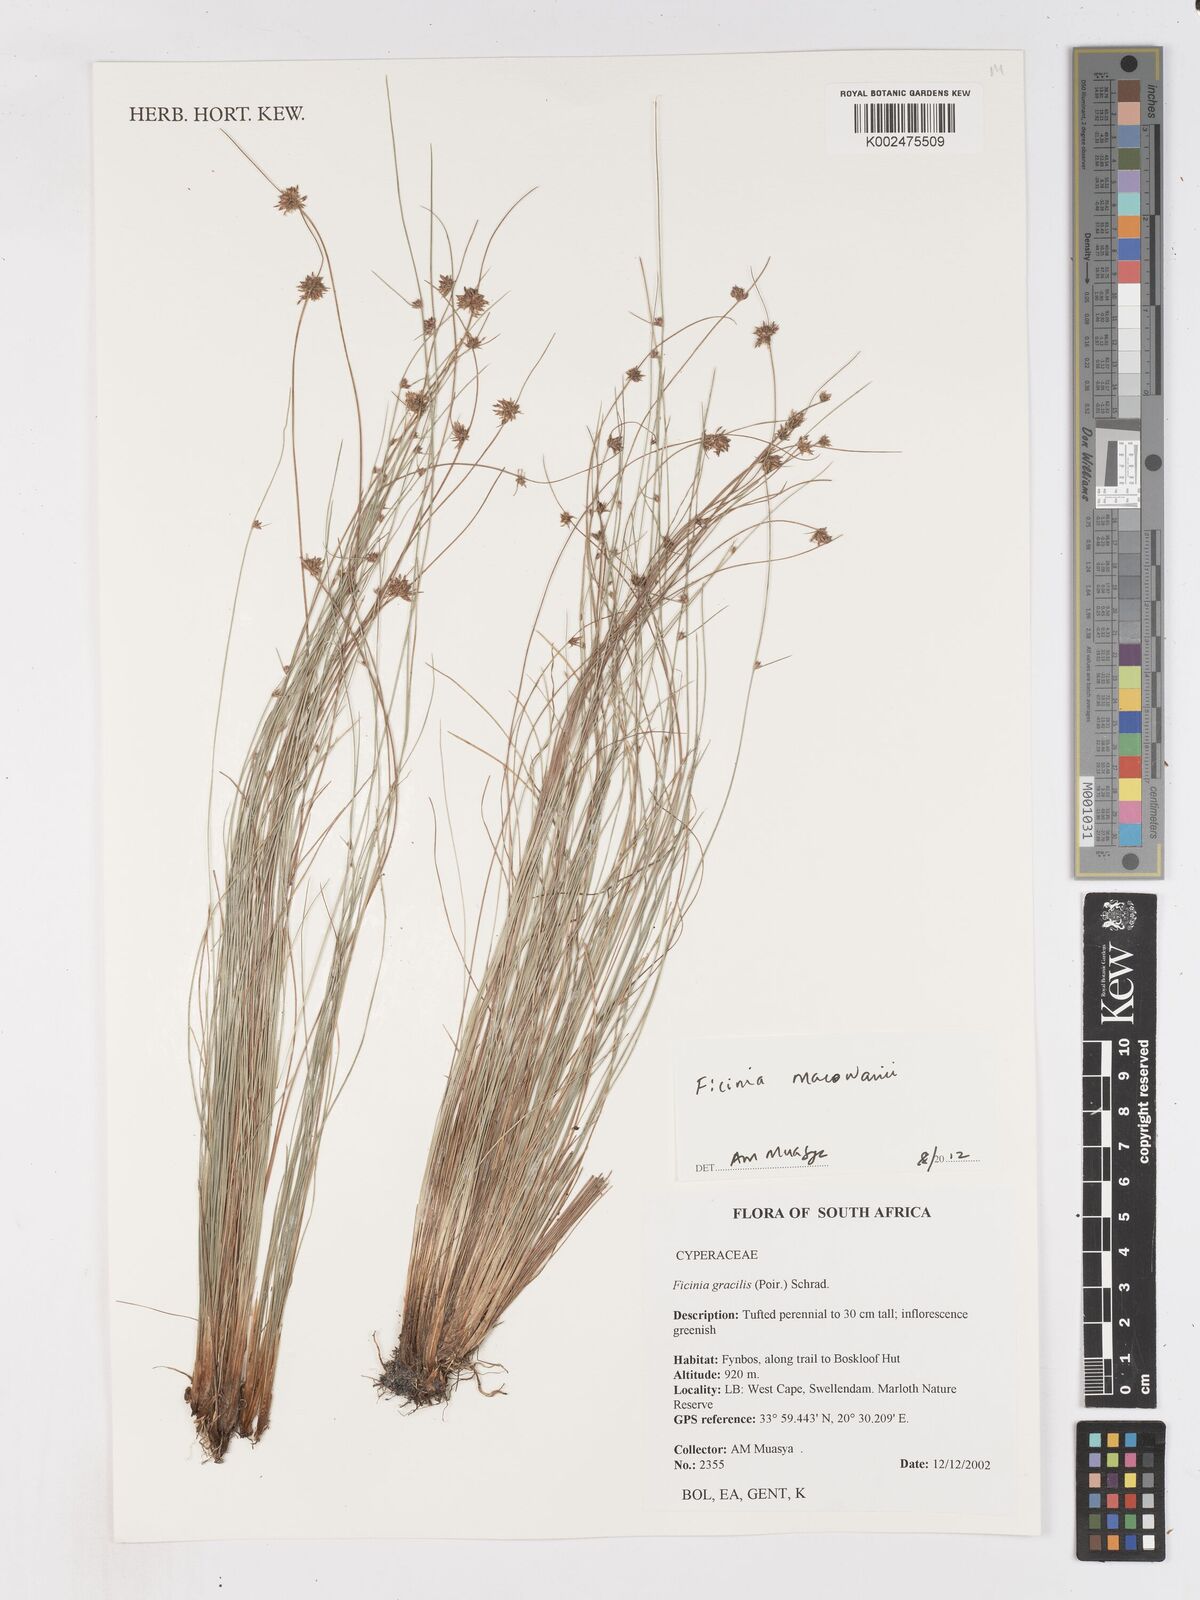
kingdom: Plantae
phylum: Tracheophyta
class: Liliopsida
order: Poales
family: Cyperaceae
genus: Ficinia
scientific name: Ficinia macowanii
